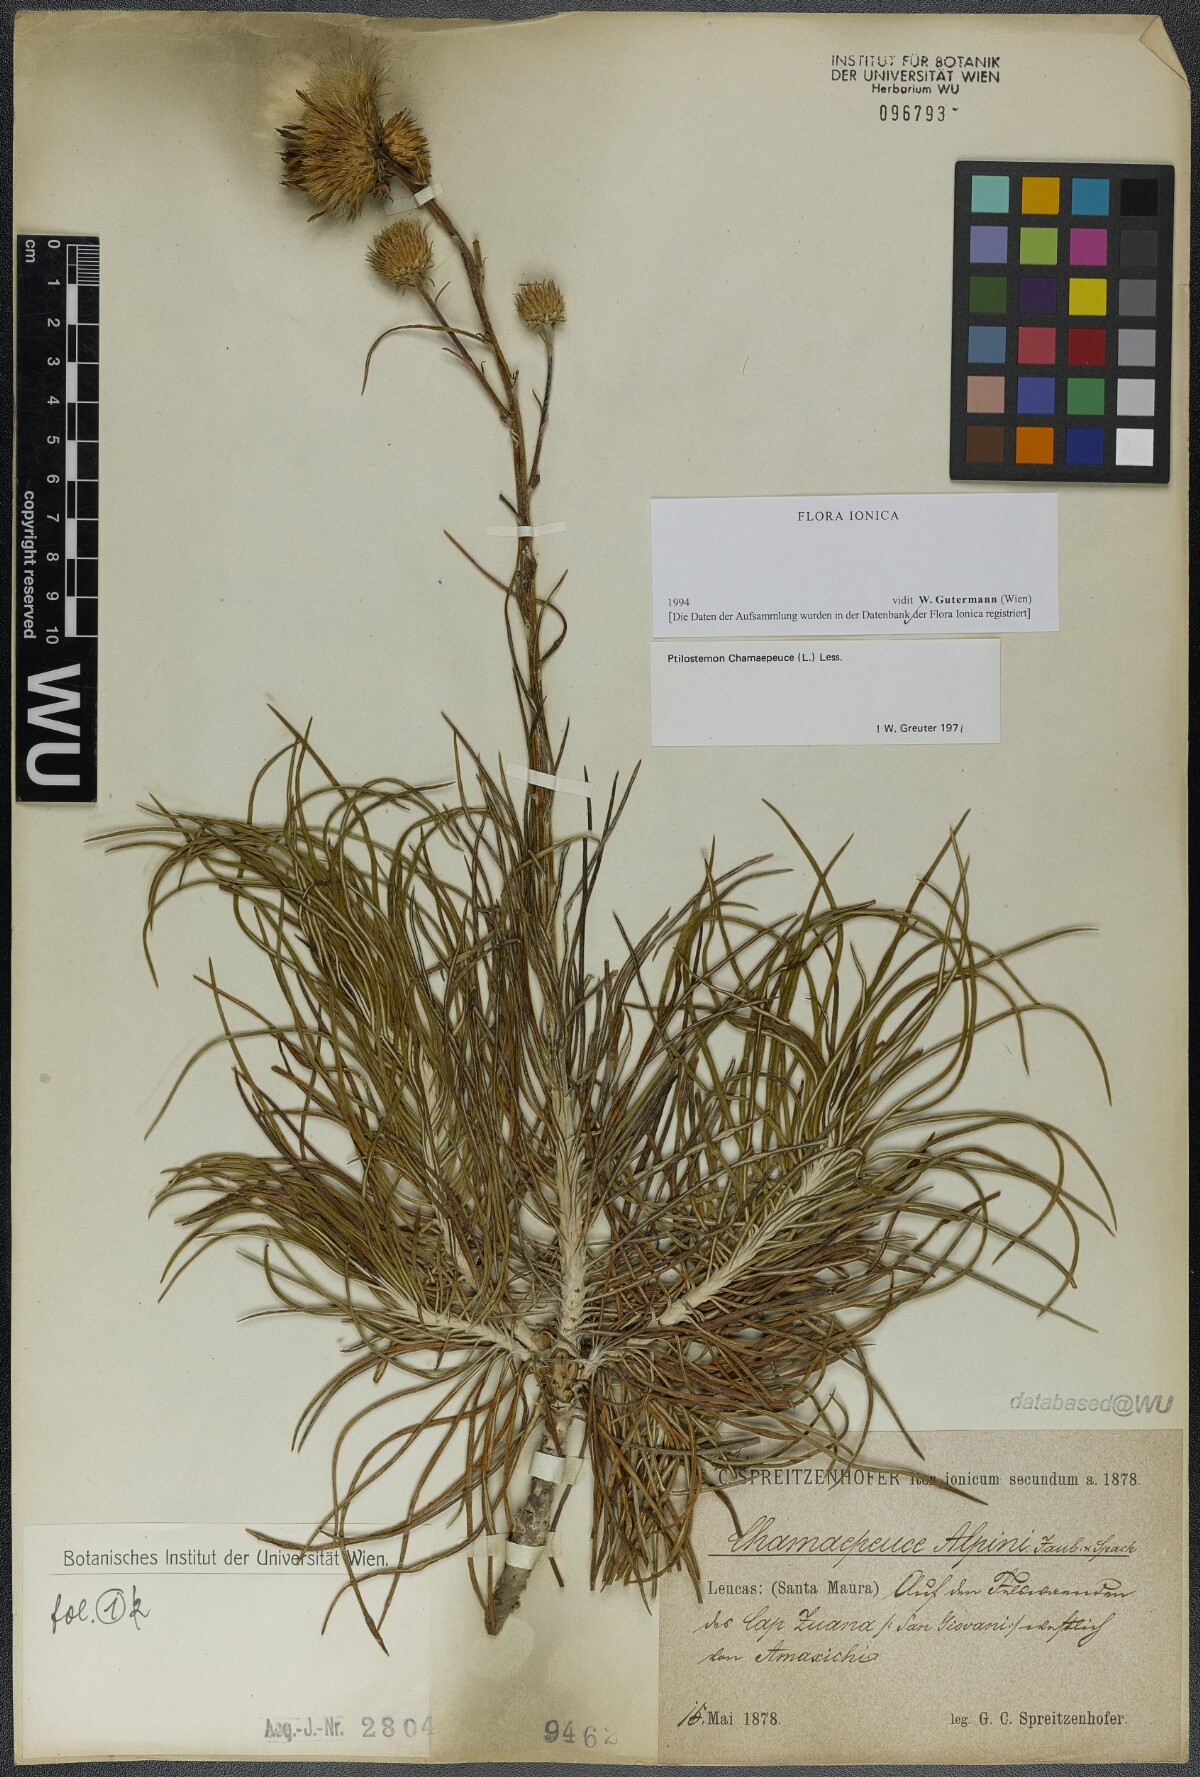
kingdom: Plantae
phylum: Tracheophyta
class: Magnoliopsida
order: Asterales
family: Asteraceae
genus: Ptilostemon
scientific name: Ptilostemon chamaepeuce
